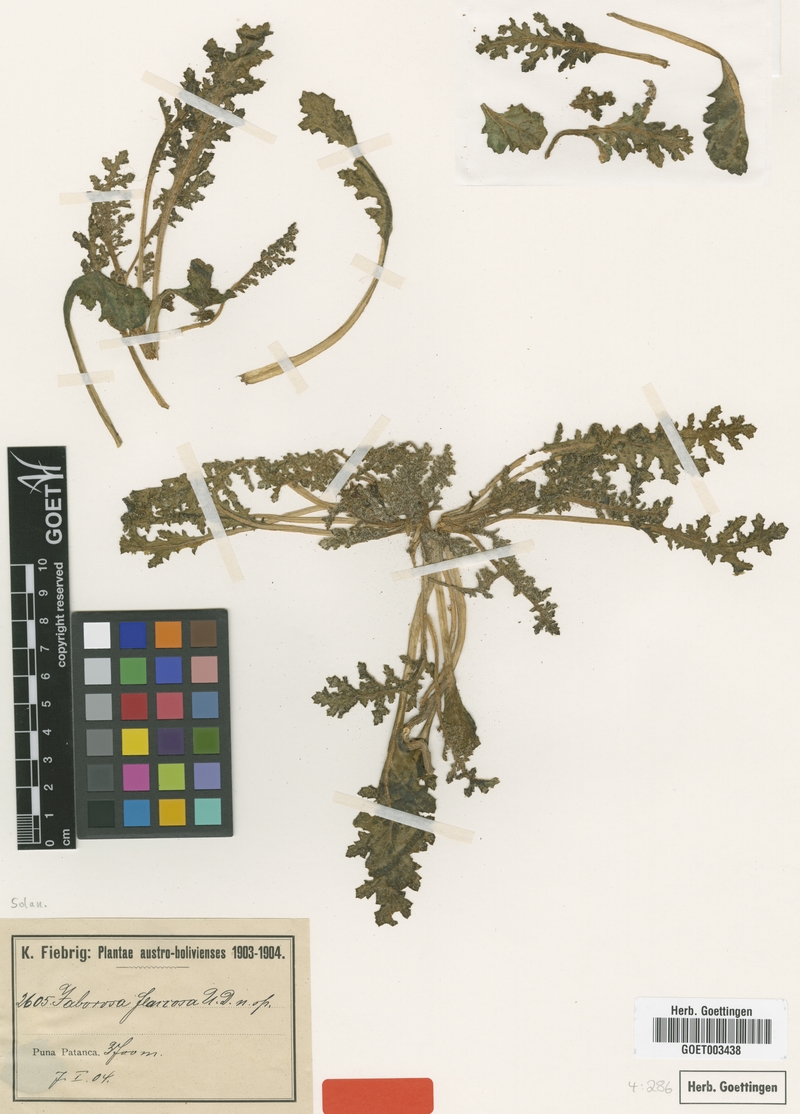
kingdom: Plantae
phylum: Tracheophyta
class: Magnoliopsida
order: Solanales
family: Solanaceae
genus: Jaborosa
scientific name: Jaborosa parviflora
